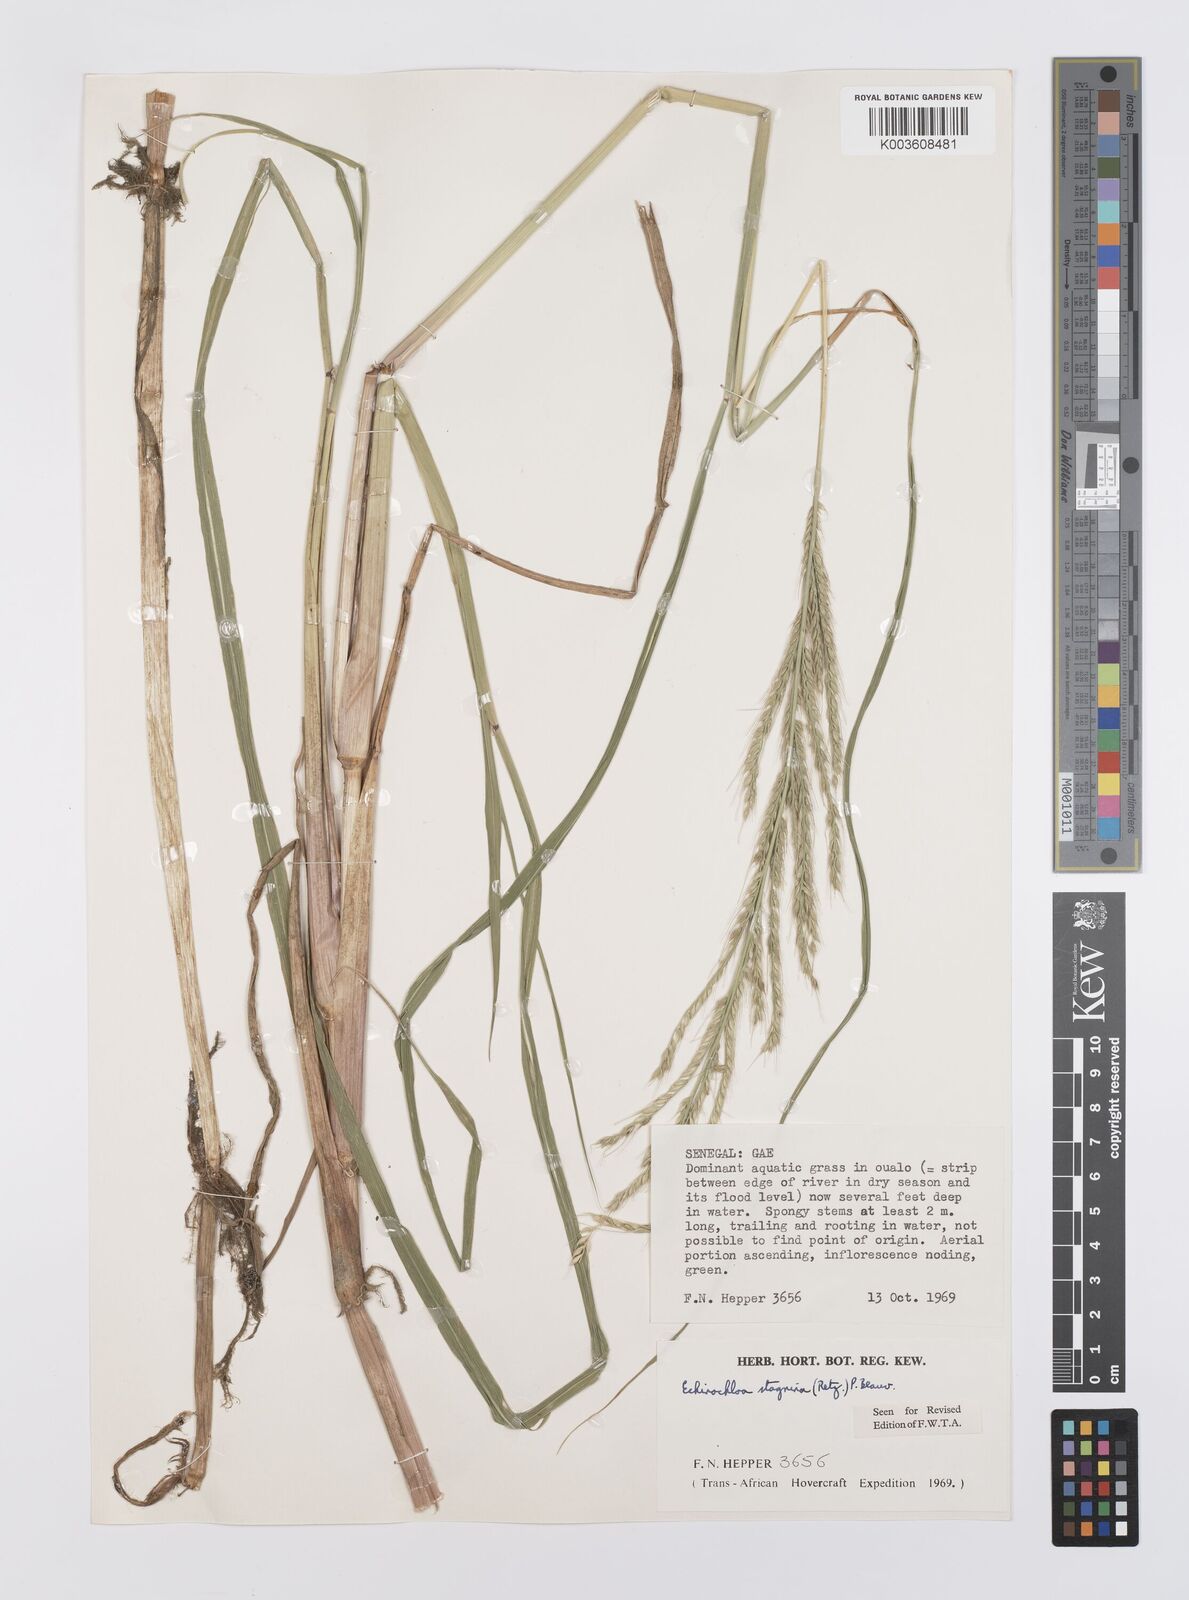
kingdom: Plantae
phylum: Tracheophyta
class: Liliopsida
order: Poales
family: Poaceae
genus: Echinochloa
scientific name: Echinochloa stagnina
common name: Burgu grass
